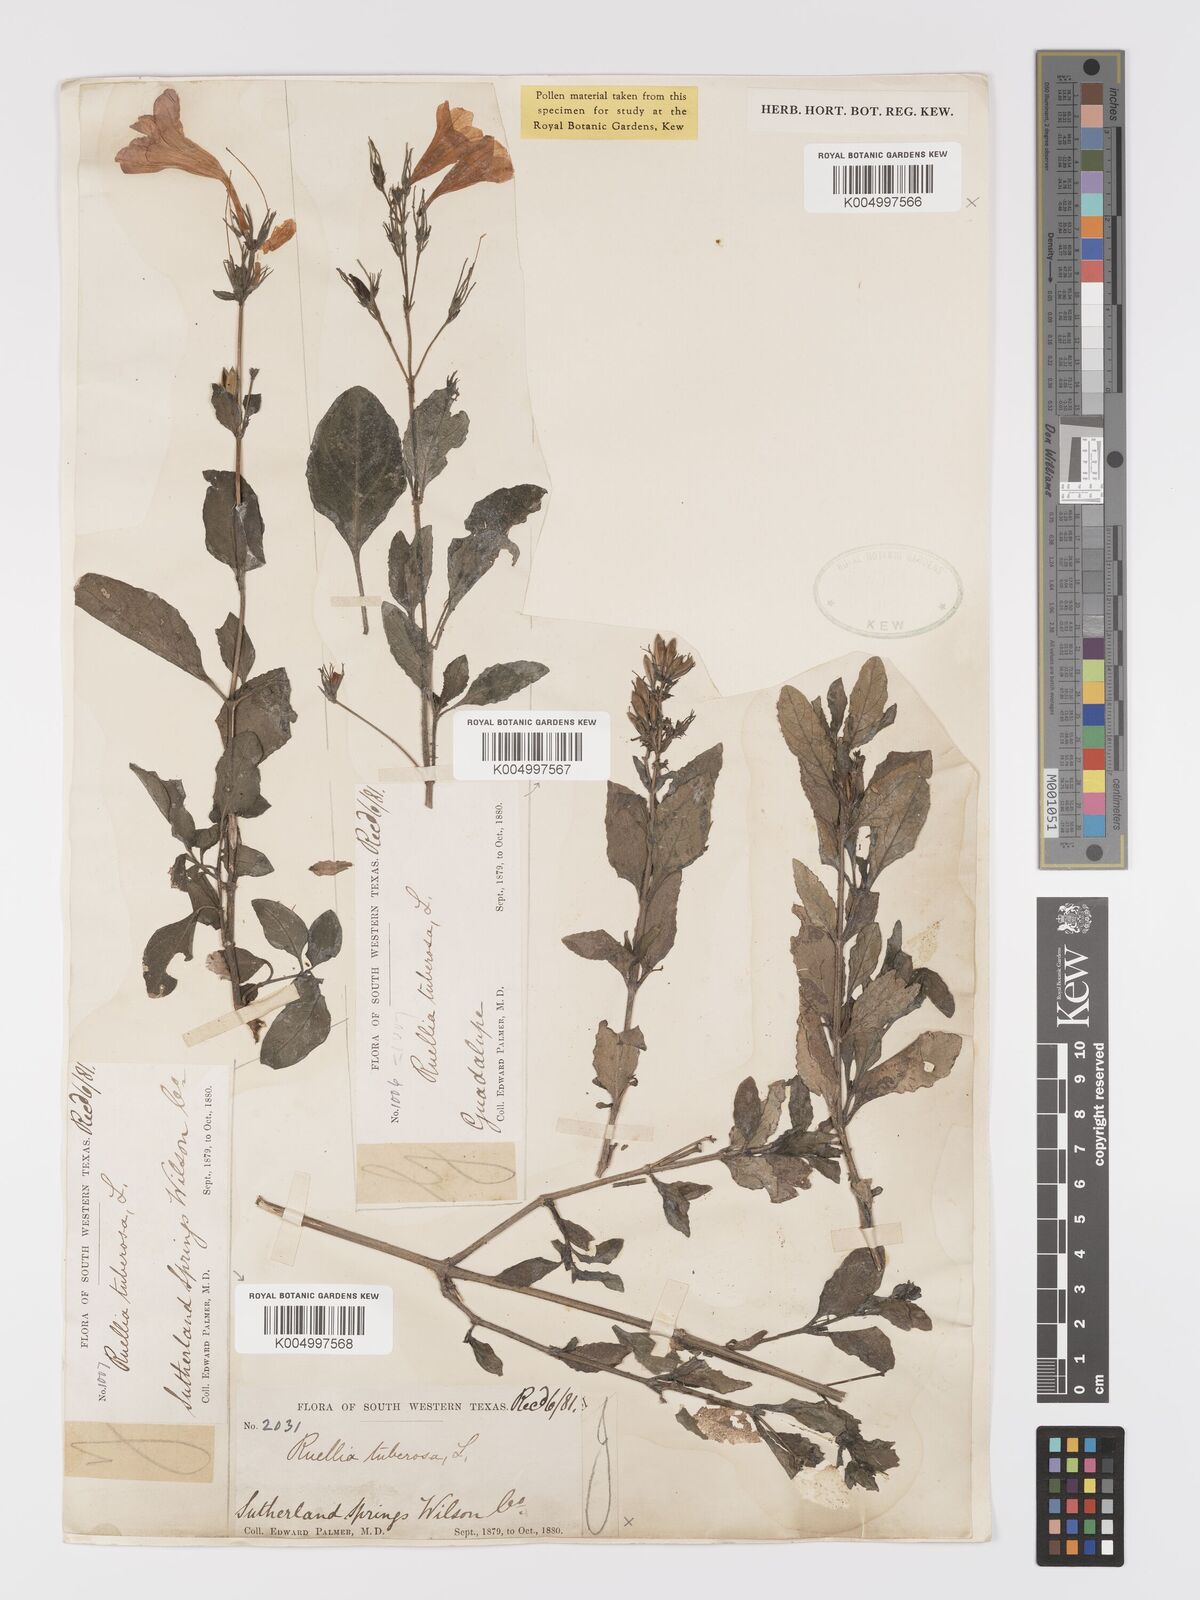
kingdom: Plantae
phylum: Tracheophyta
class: Magnoliopsida
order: Lamiales
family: Acanthaceae
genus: Ruellia
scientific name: Ruellia tuberosa
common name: Devil's bit
